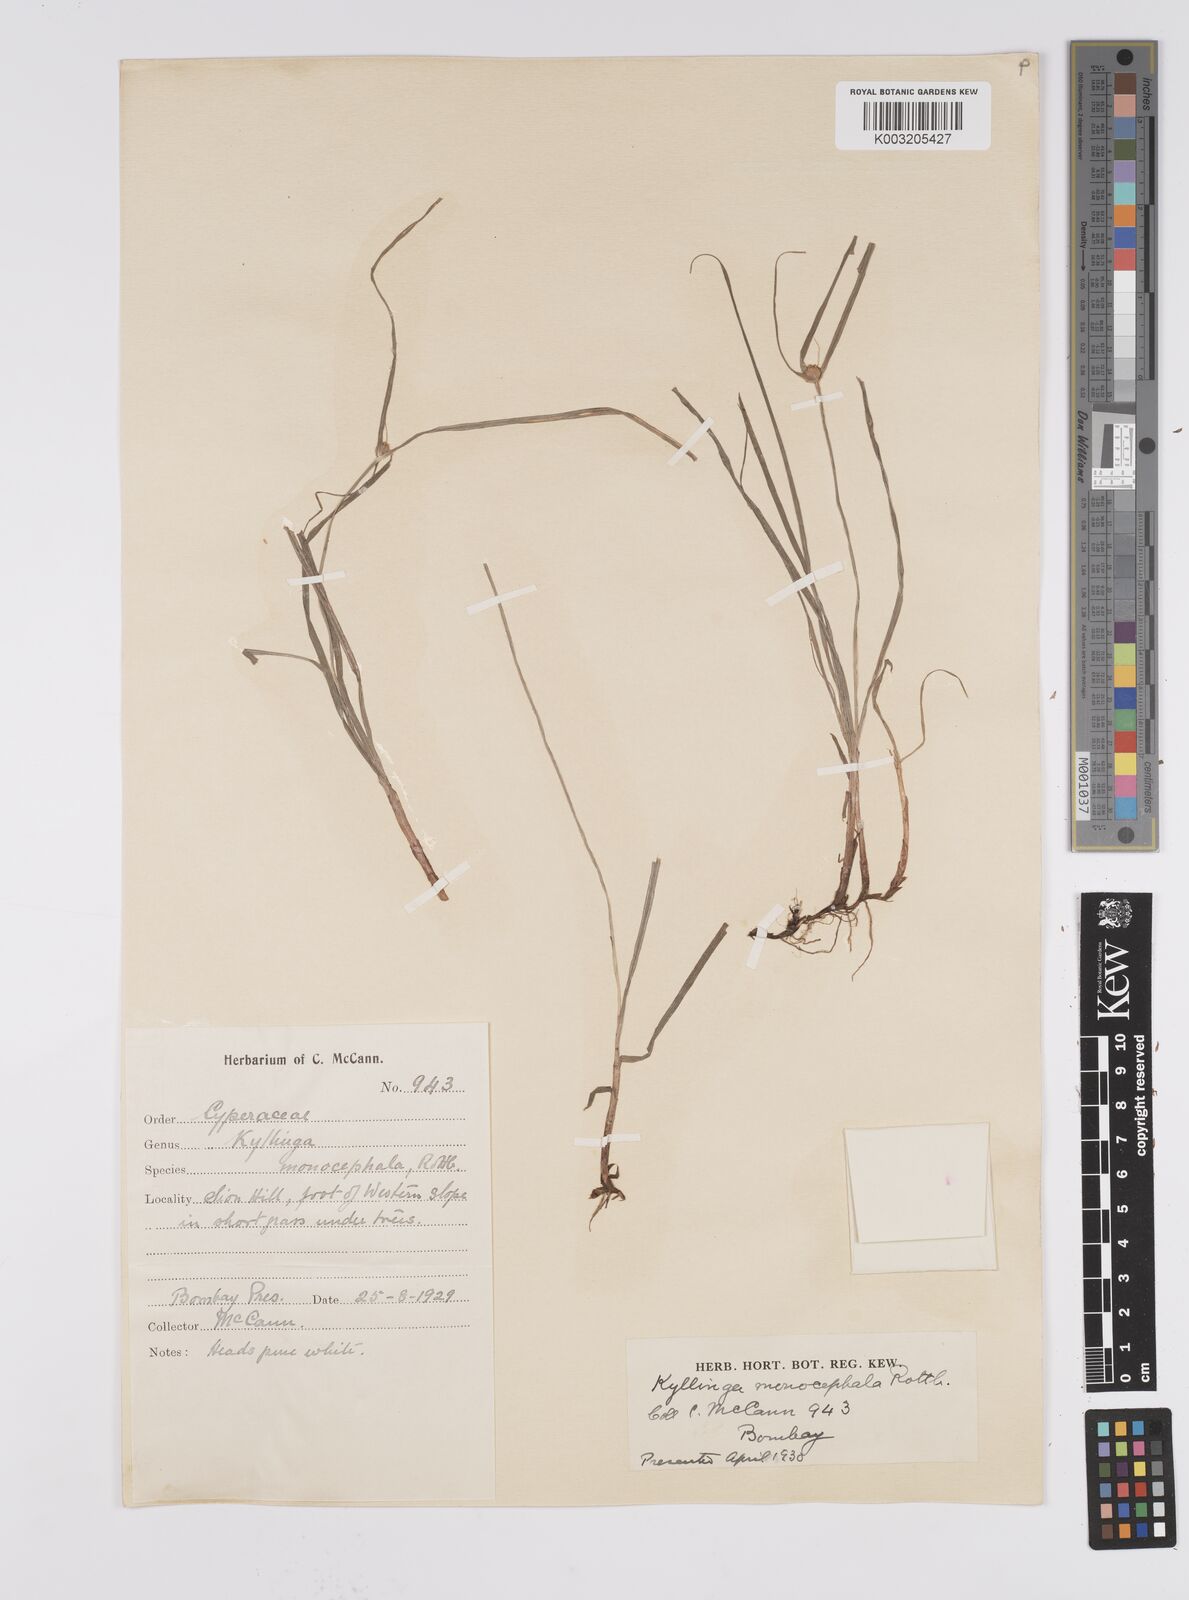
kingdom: Plantae
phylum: Tracheophyta
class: Liliopsida
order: Poales
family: Cyperaceae
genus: Cyperus
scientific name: Cyperus nemoralis
